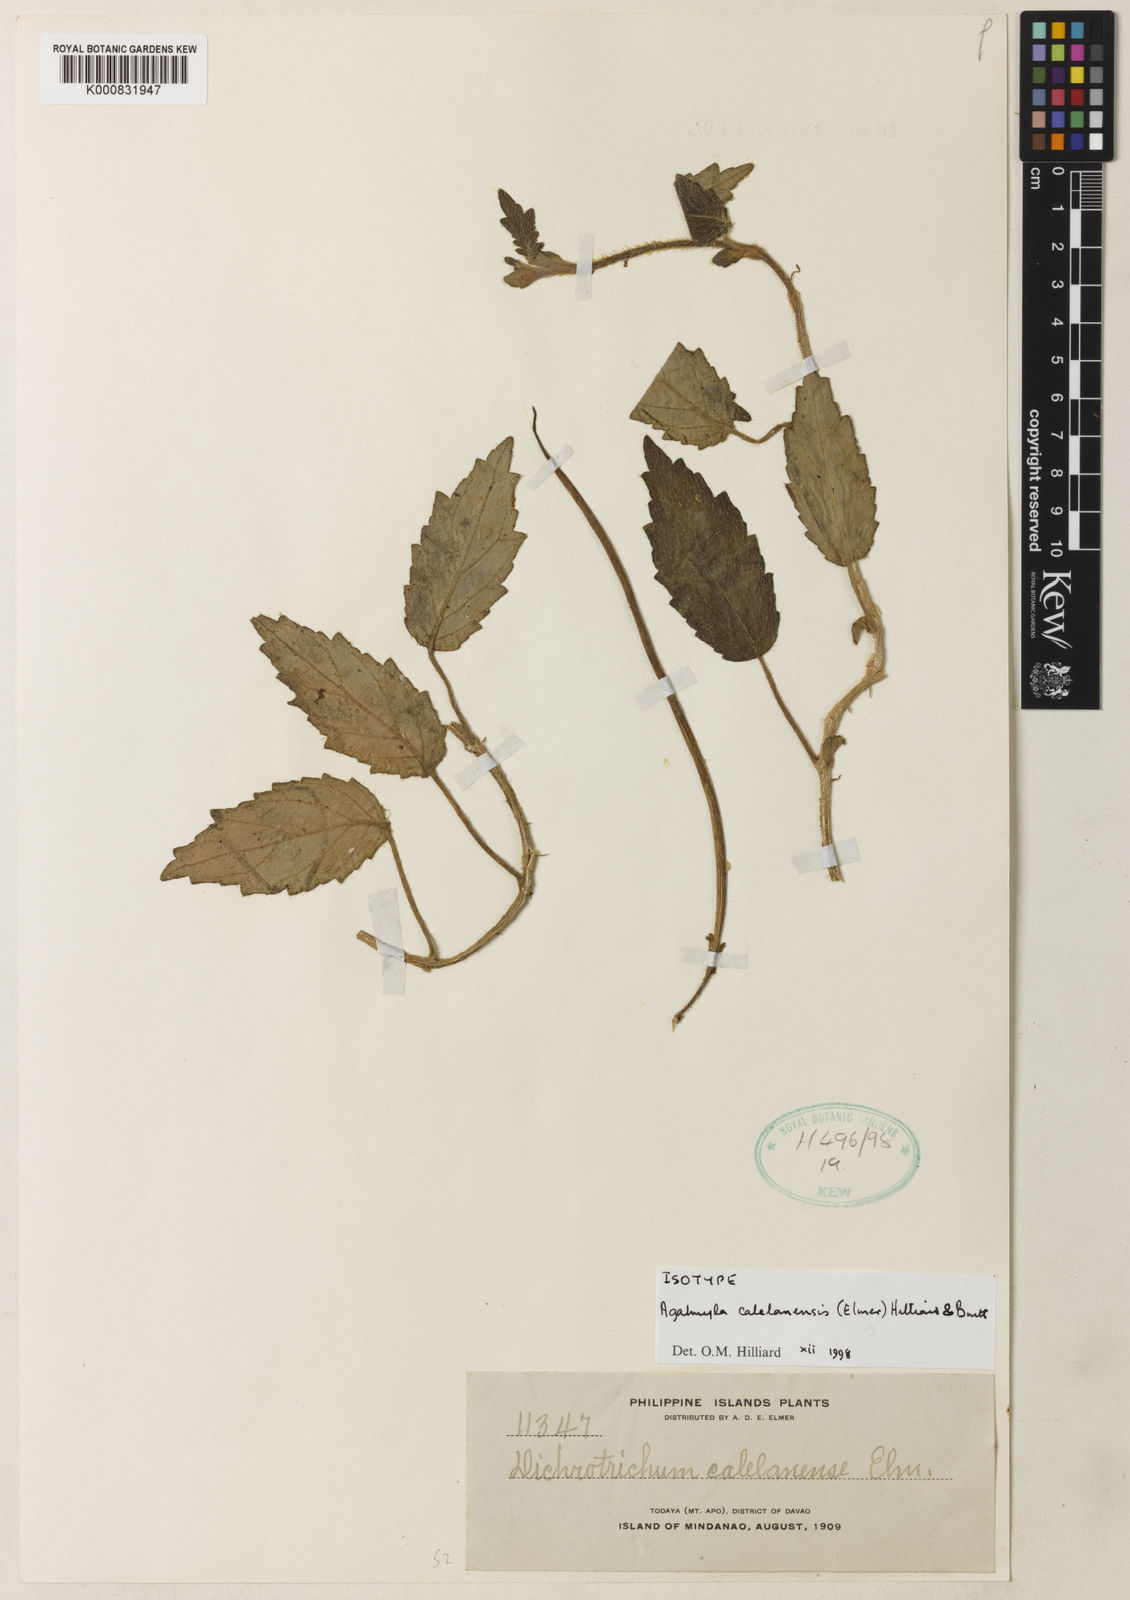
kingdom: Plantae
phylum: Tracheophyta
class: Magnoliopsida
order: Lamiales
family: Gesneriaceae
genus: Agalmyla
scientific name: Agalmyla calelanensis
